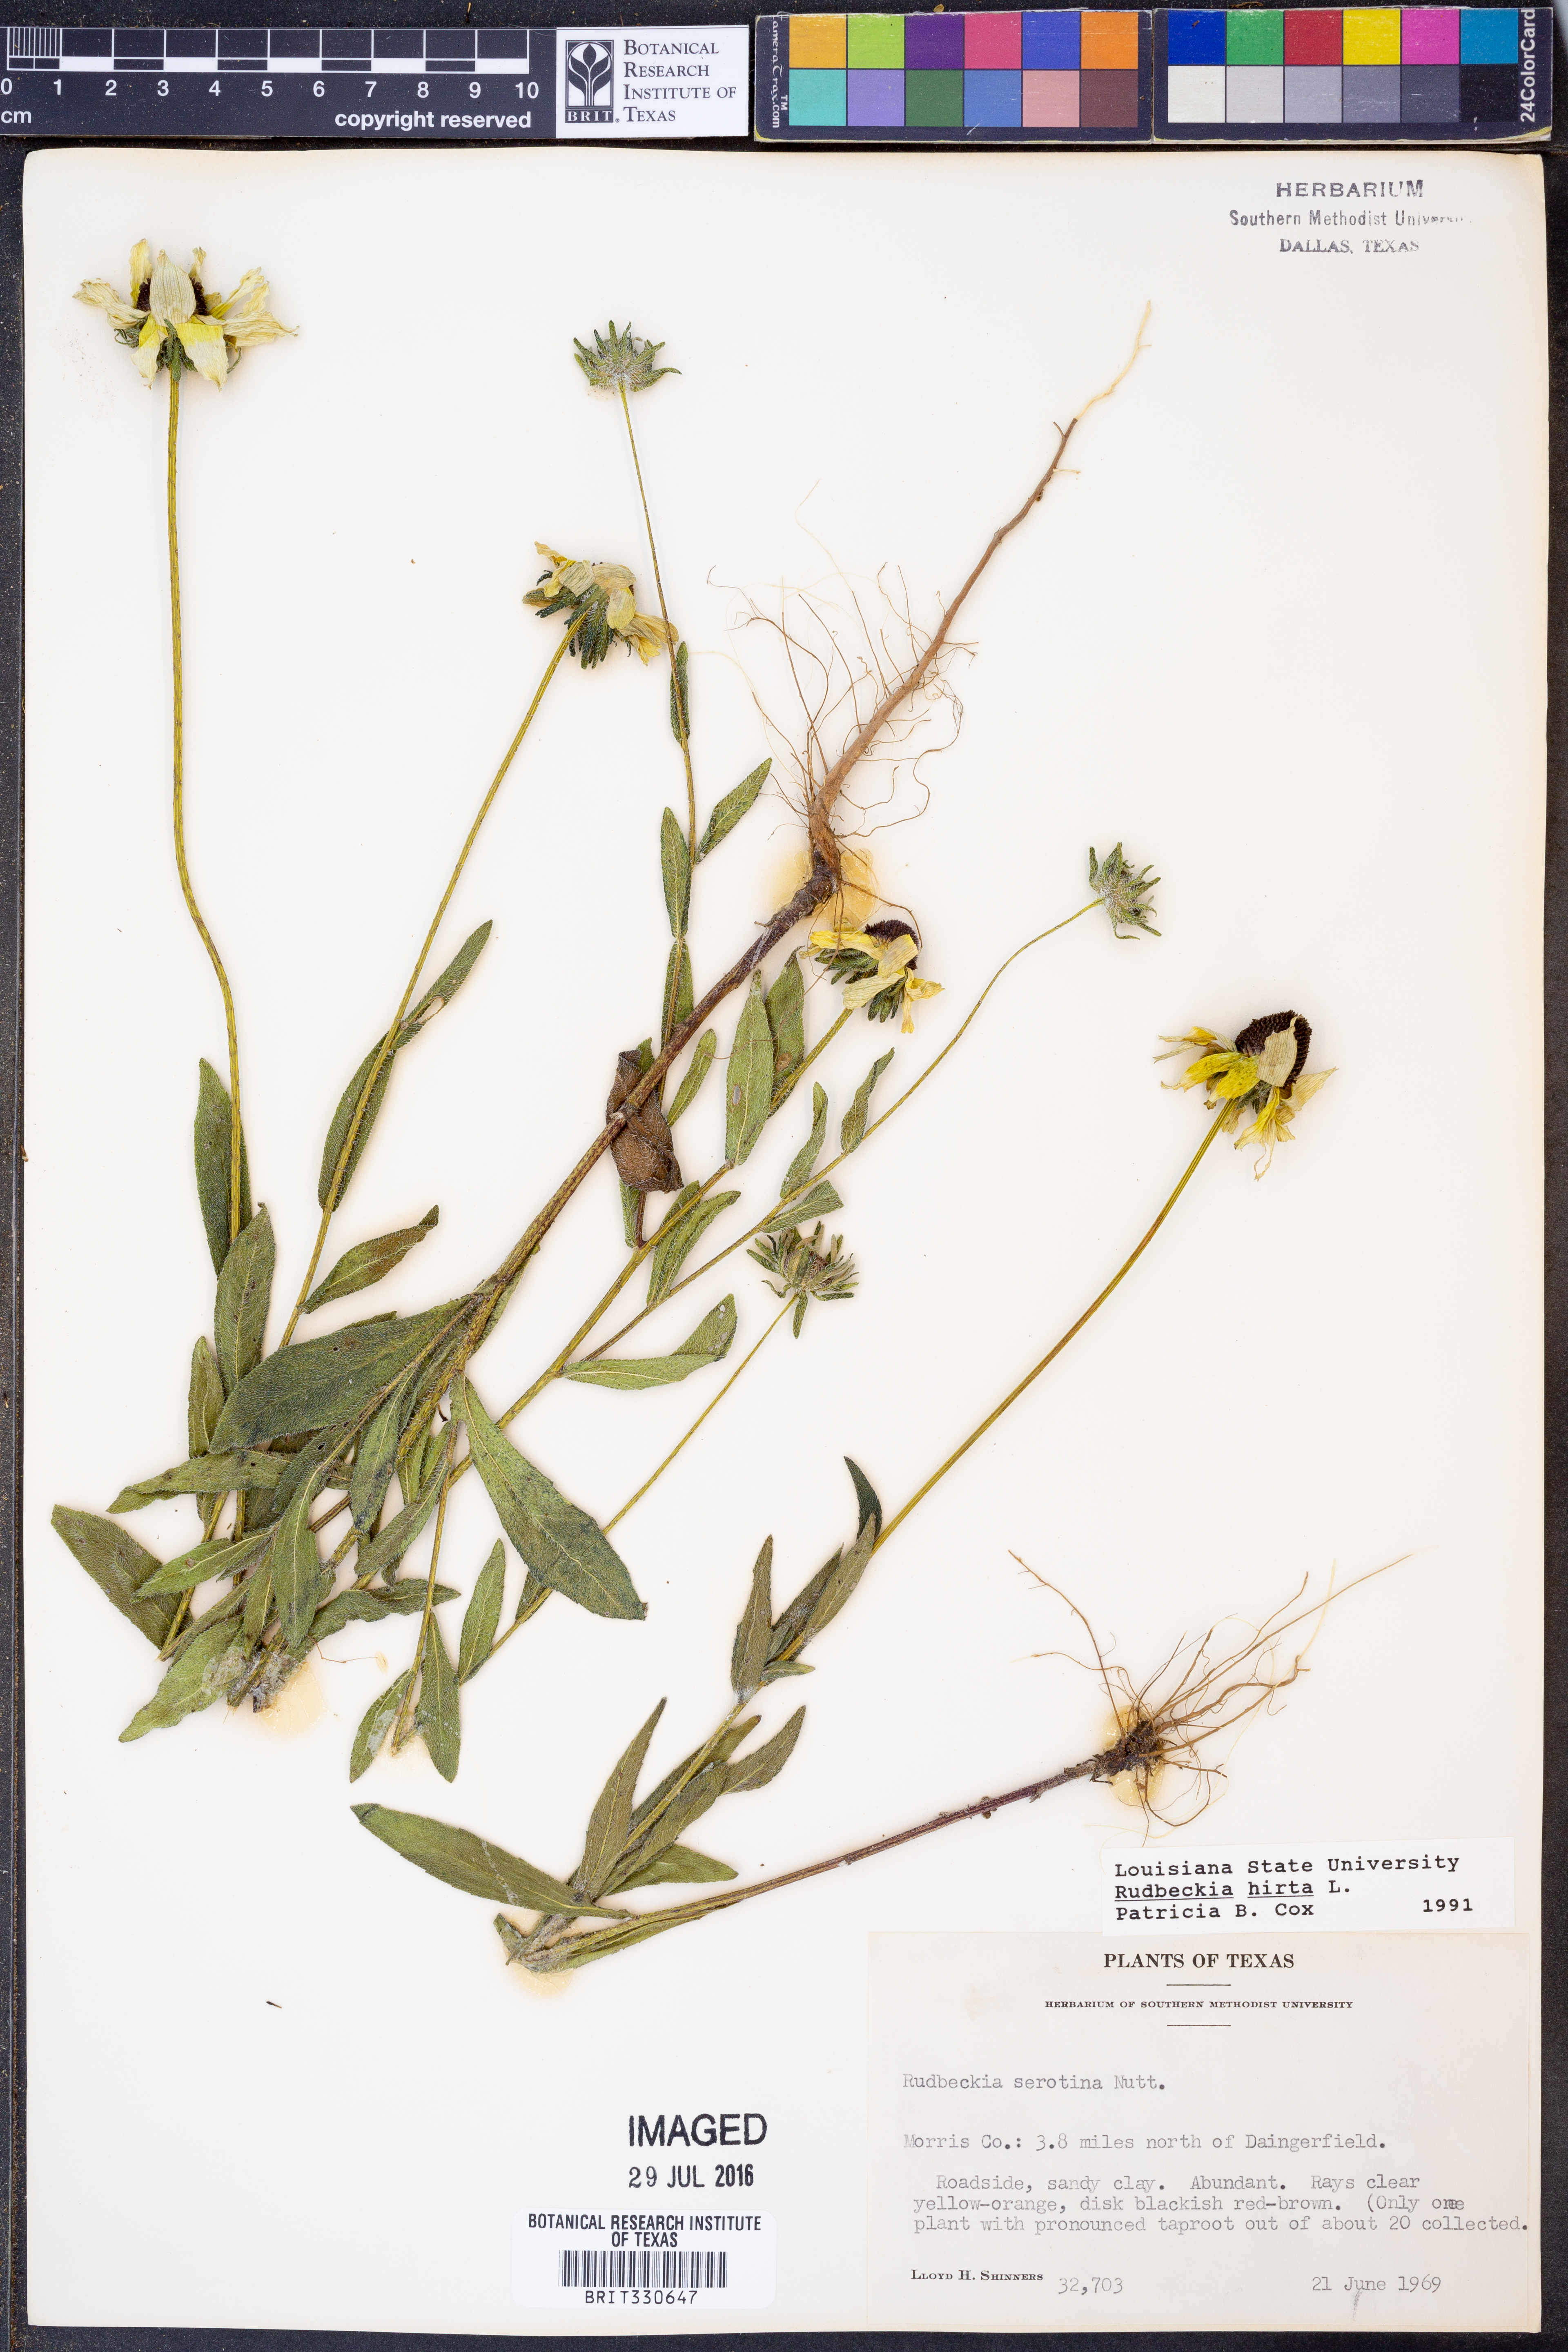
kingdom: Plantae
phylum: Tracheophyta
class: Magnoliopsida
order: Asterales
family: Asteraceae
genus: Rudbeckia
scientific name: Rudbeckia hirta
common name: Black-eyed-susan
